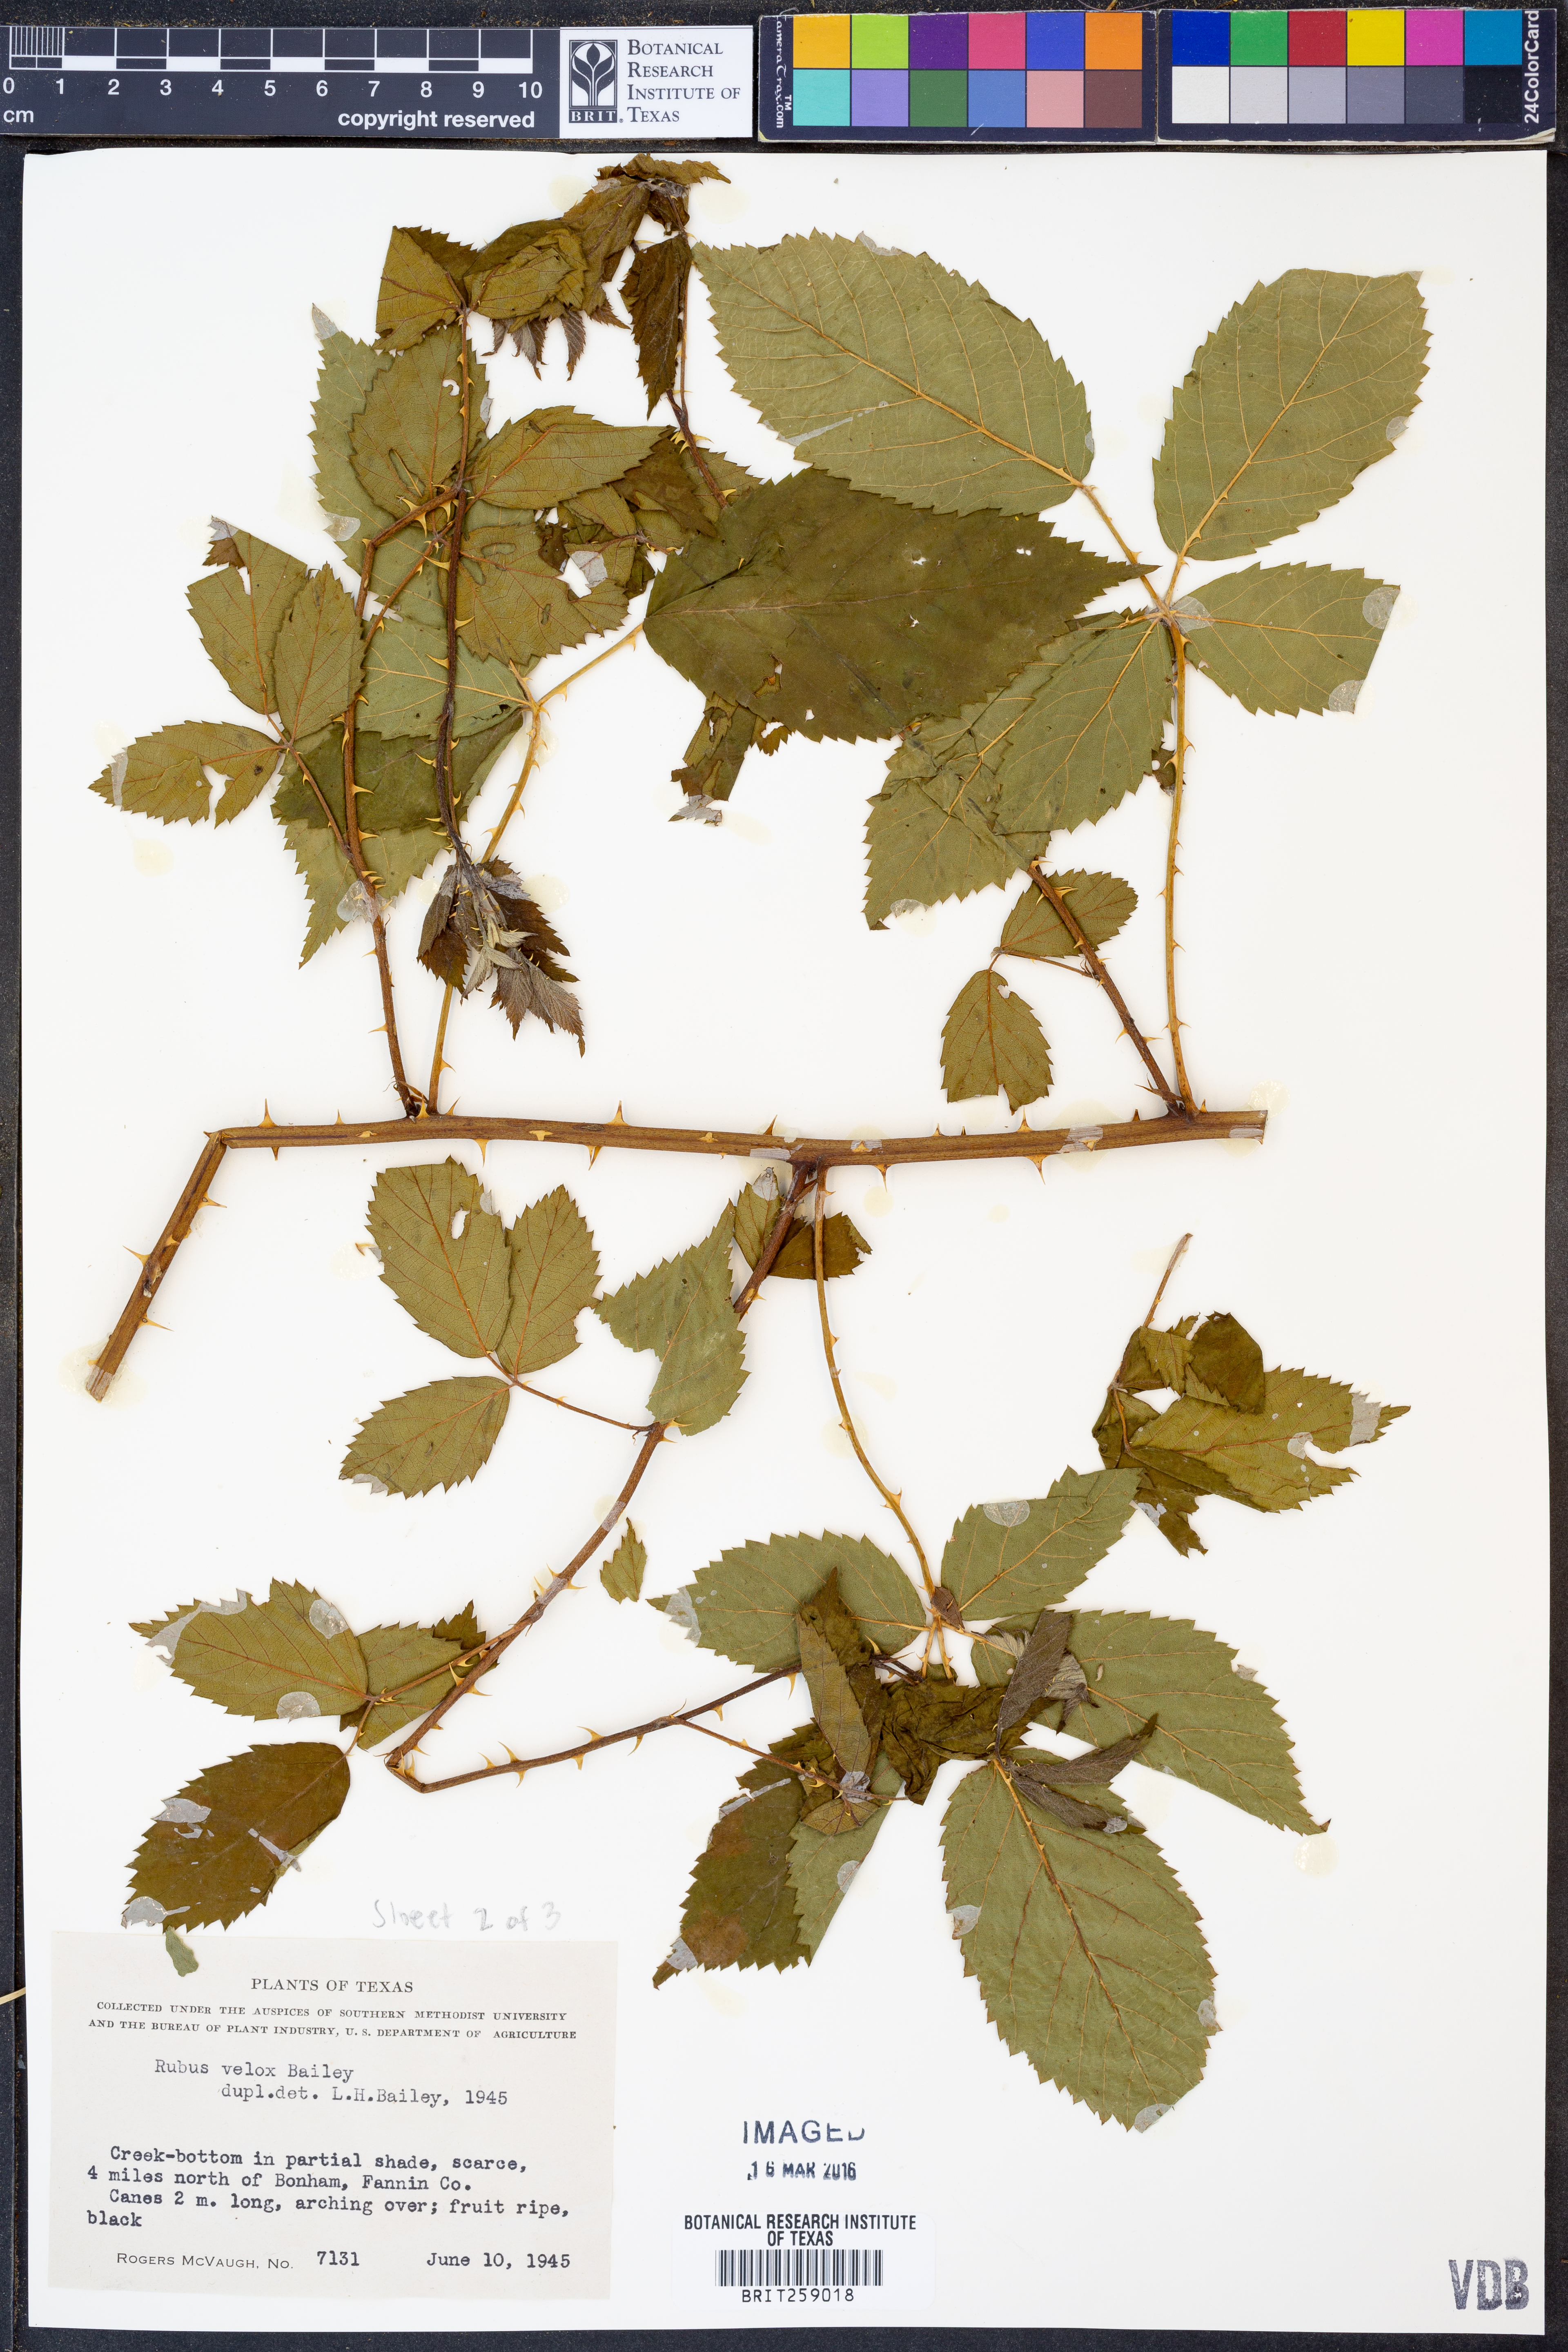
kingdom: Plantae
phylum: Tracheophyta
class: Magnoliopsida
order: Rosales
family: Rosaceae
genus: Rubus
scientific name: Rubus velox
